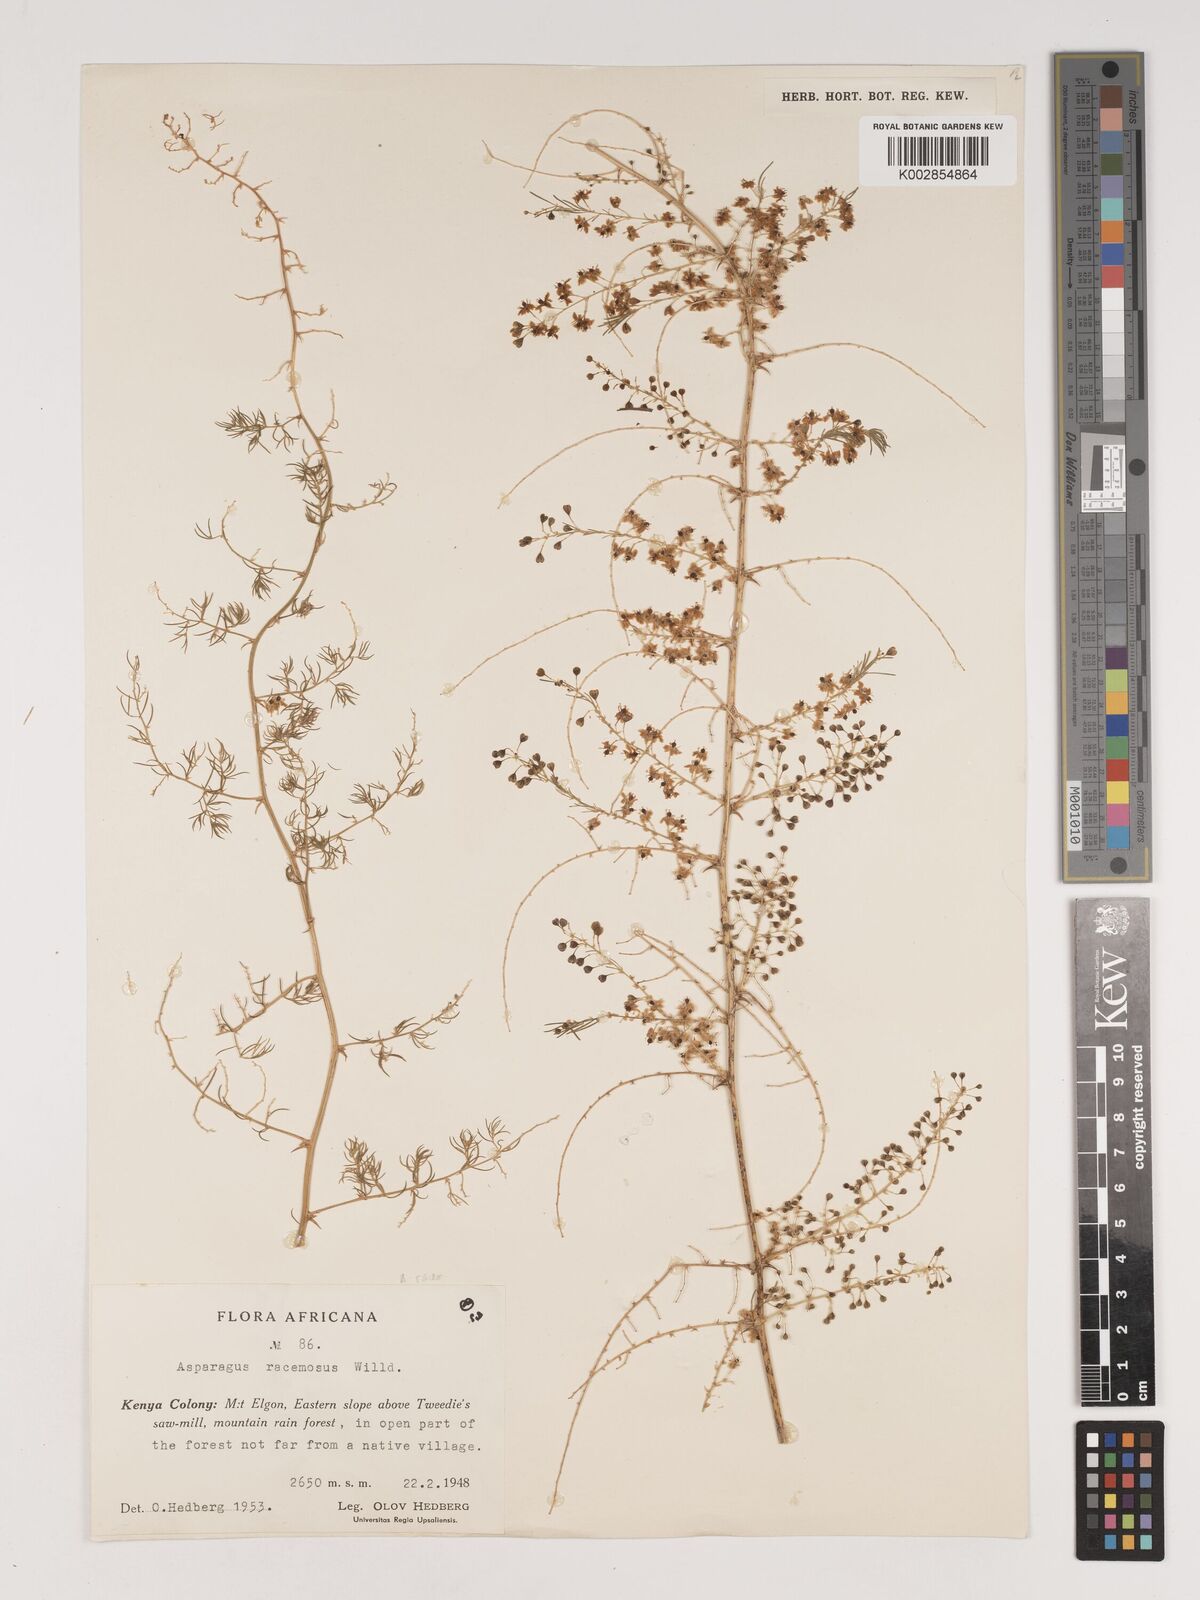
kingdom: Plantae
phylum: Tracheophyta
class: Liliopsida
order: Asparagales
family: Asparagaceae
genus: Asparagus
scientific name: Asparagus racemosus
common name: Asparagus-fern
